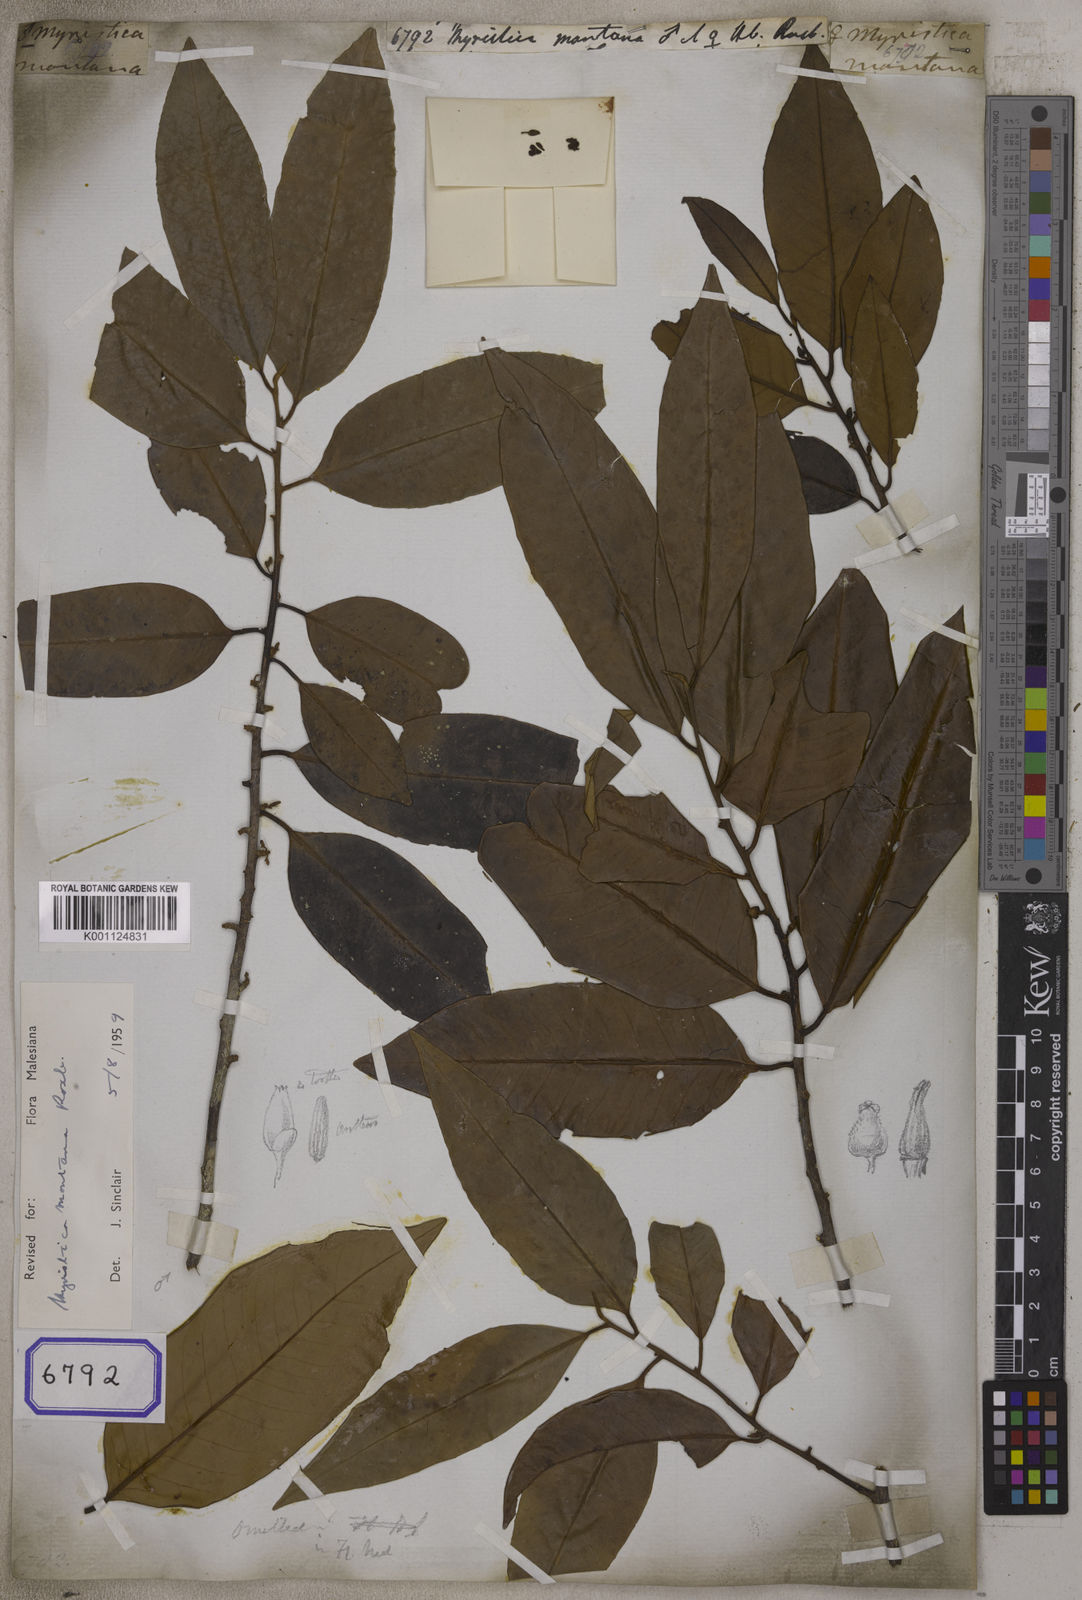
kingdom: Plantae
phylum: Tracheophyta
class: Magnoliopsida
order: Magnoliales
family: Myristicaceae
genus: Myristica
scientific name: Myristica
